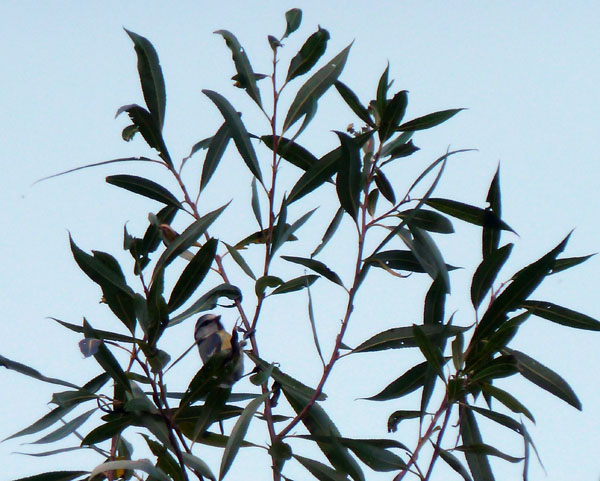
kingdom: Animalia
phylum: Chordata
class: Aves
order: Passeriformes
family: Paridae
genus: Cyanistes
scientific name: Cyanistes caeruleus
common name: Eurasian blue tit
